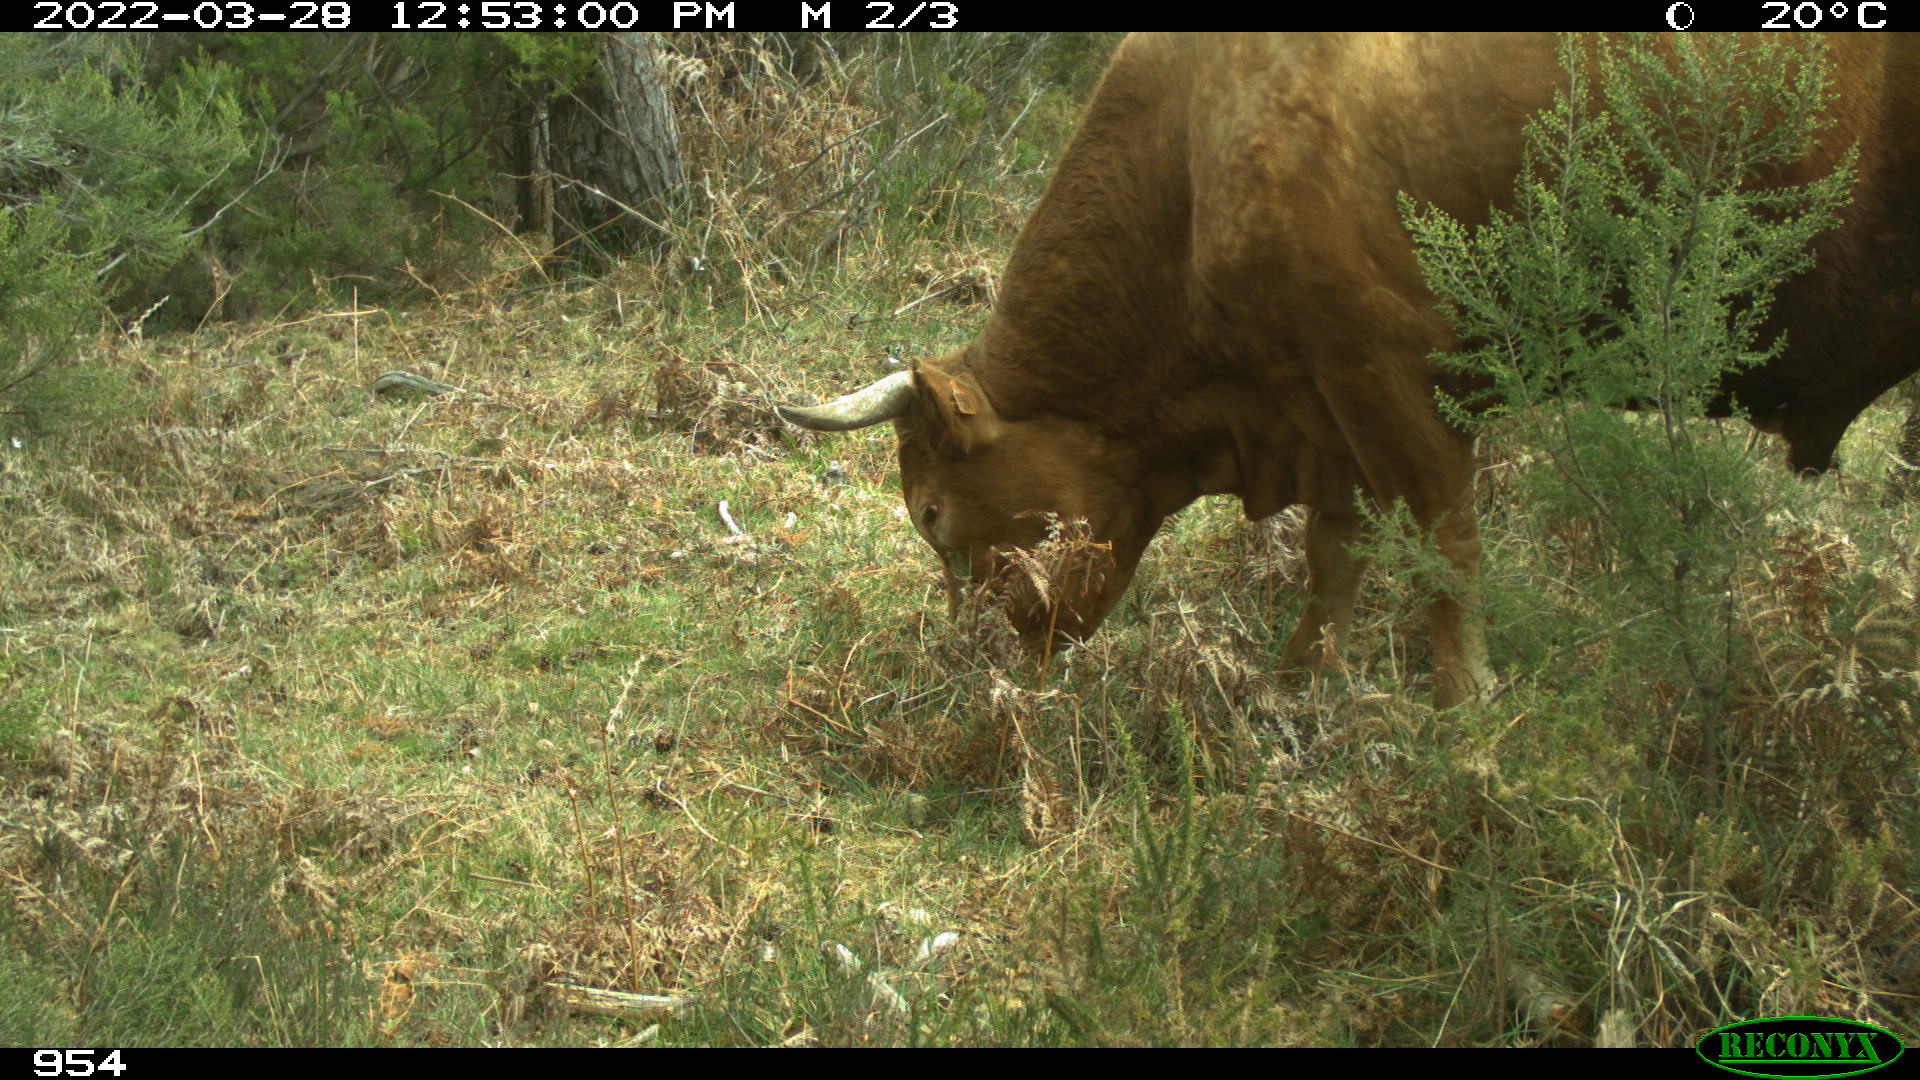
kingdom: Animalia
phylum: Chordata
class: Mammalia
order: Artiodactyla
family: Bovidae
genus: Bos
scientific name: Bos taurus
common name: Domesticated cattle
